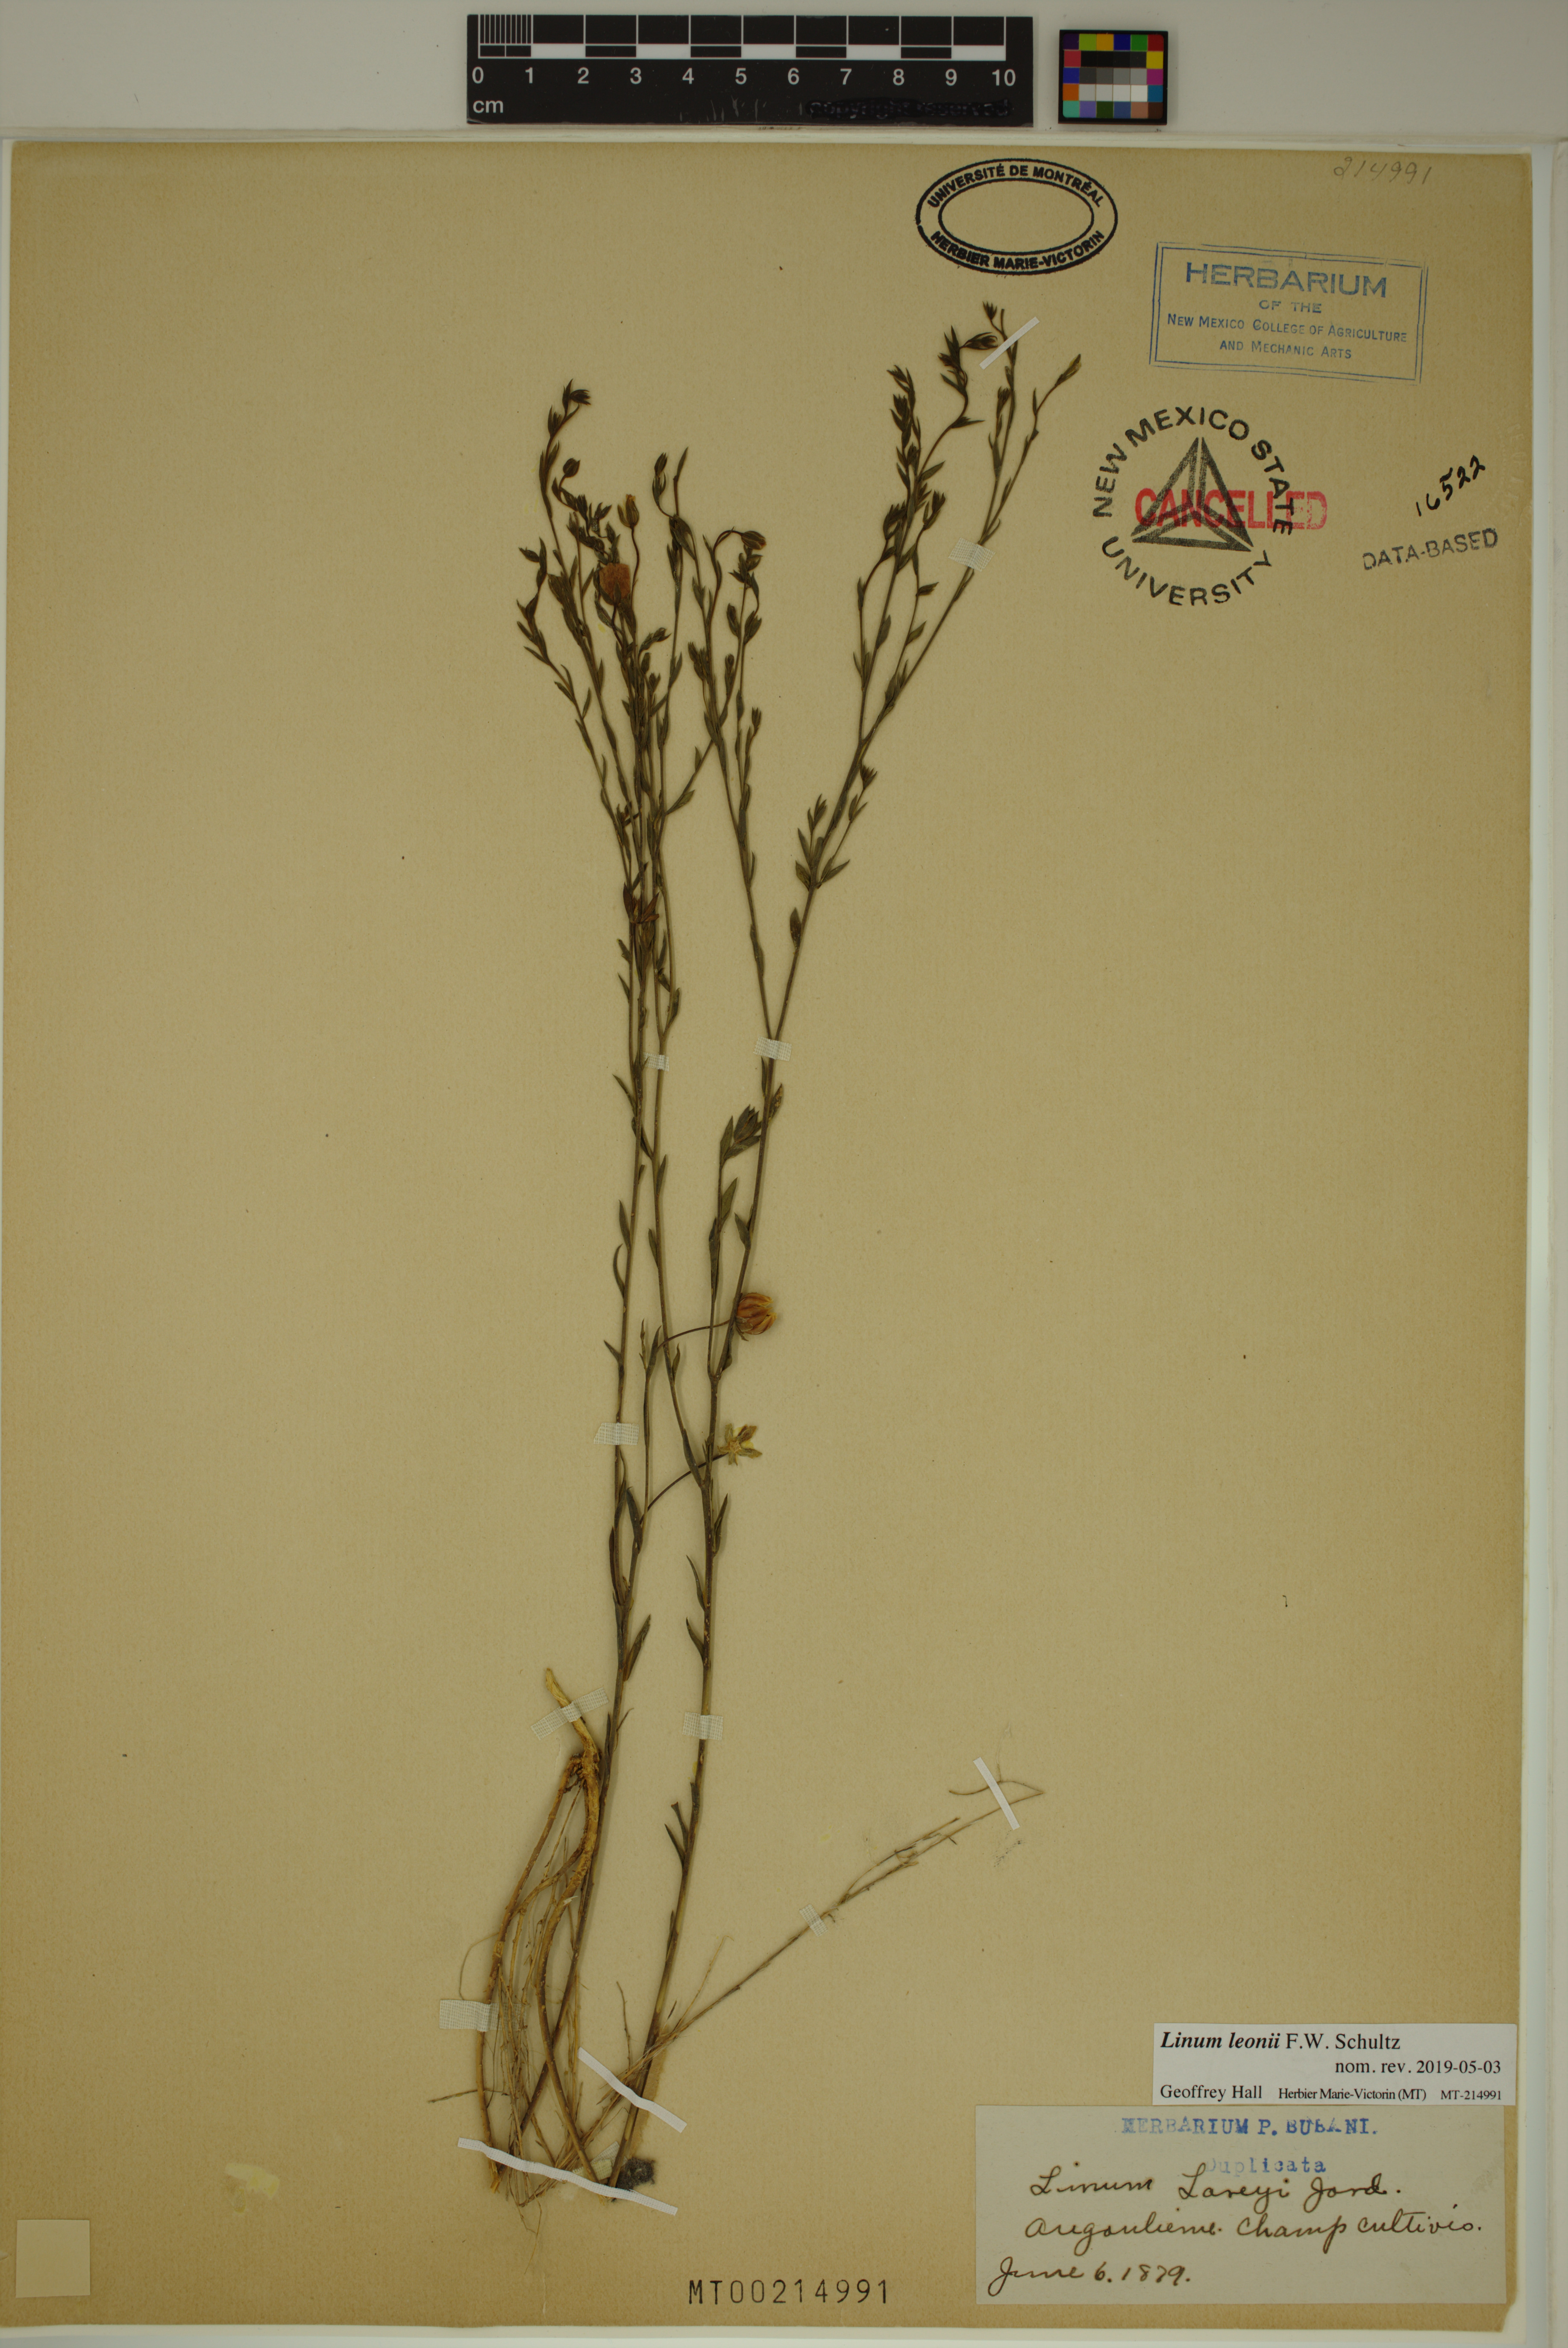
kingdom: Plantae
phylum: Tracheophyta
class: Magnoliopsida
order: Malpighiales
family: Linaceae
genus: Linum
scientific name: Linum leonii
